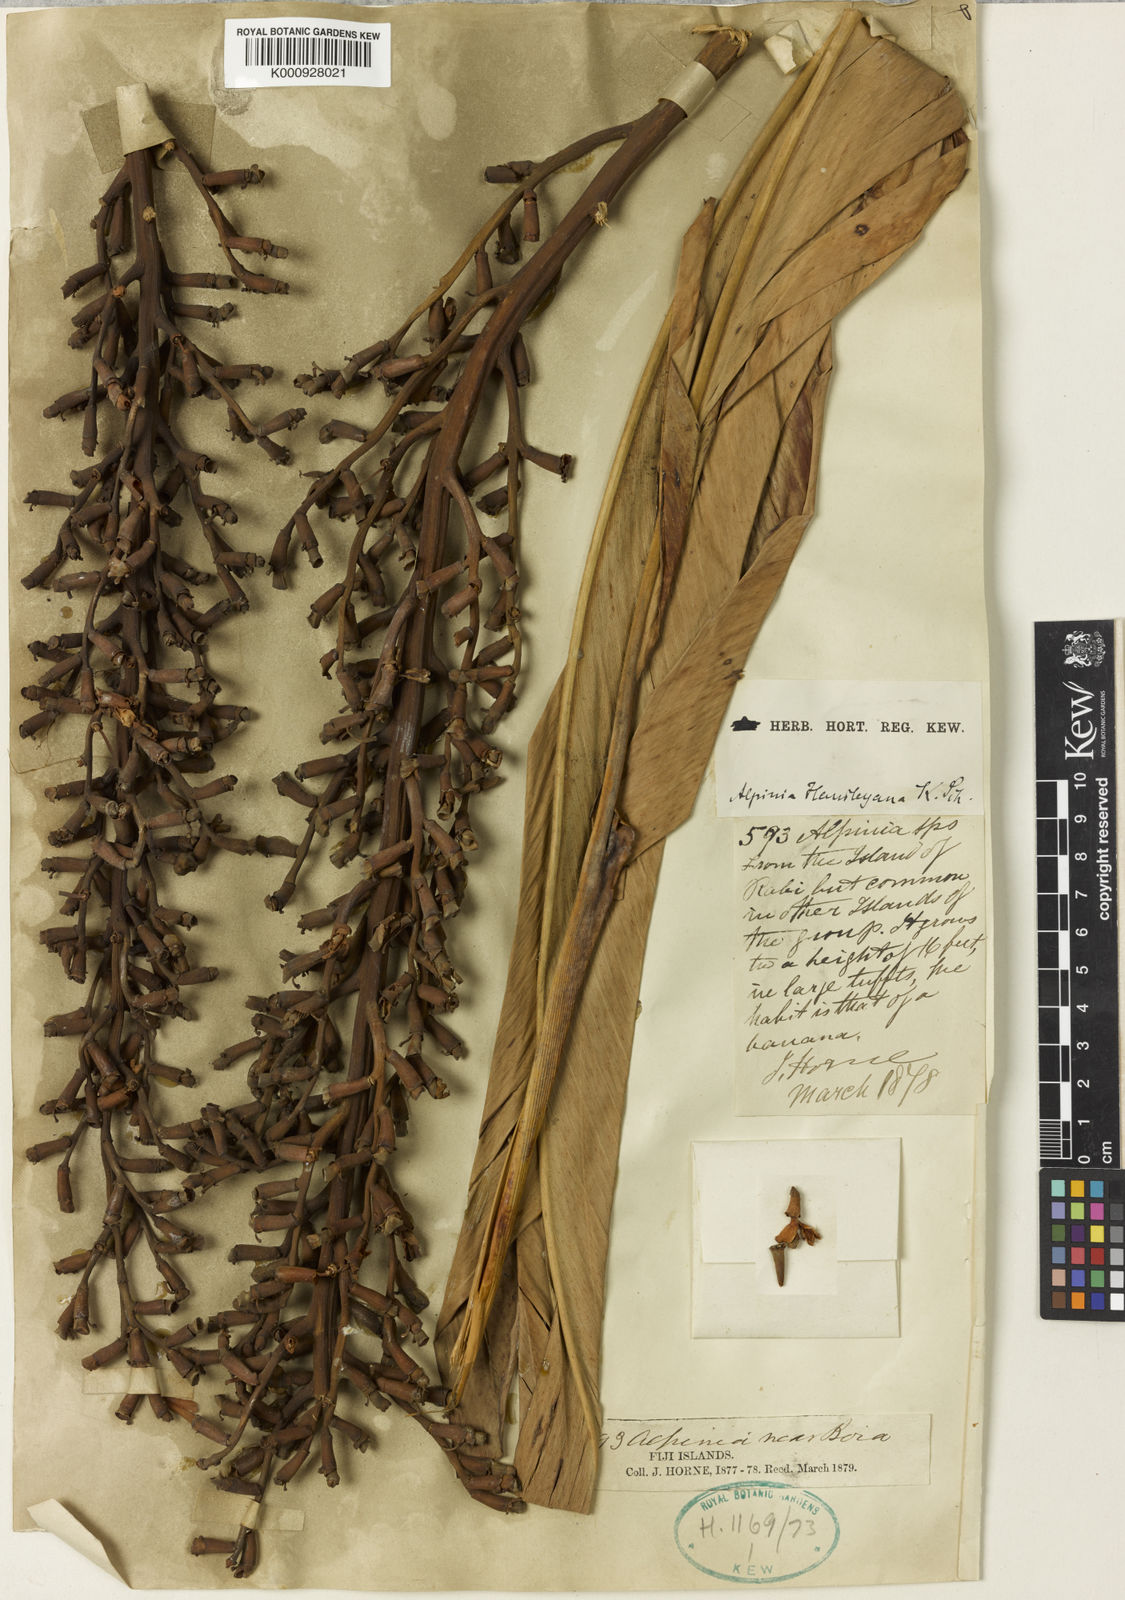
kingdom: Plantae
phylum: Tracheophyta
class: Liliopsida
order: Zingiberales
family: Zingiberaceae
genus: Alpinia
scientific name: Alpinia boia
